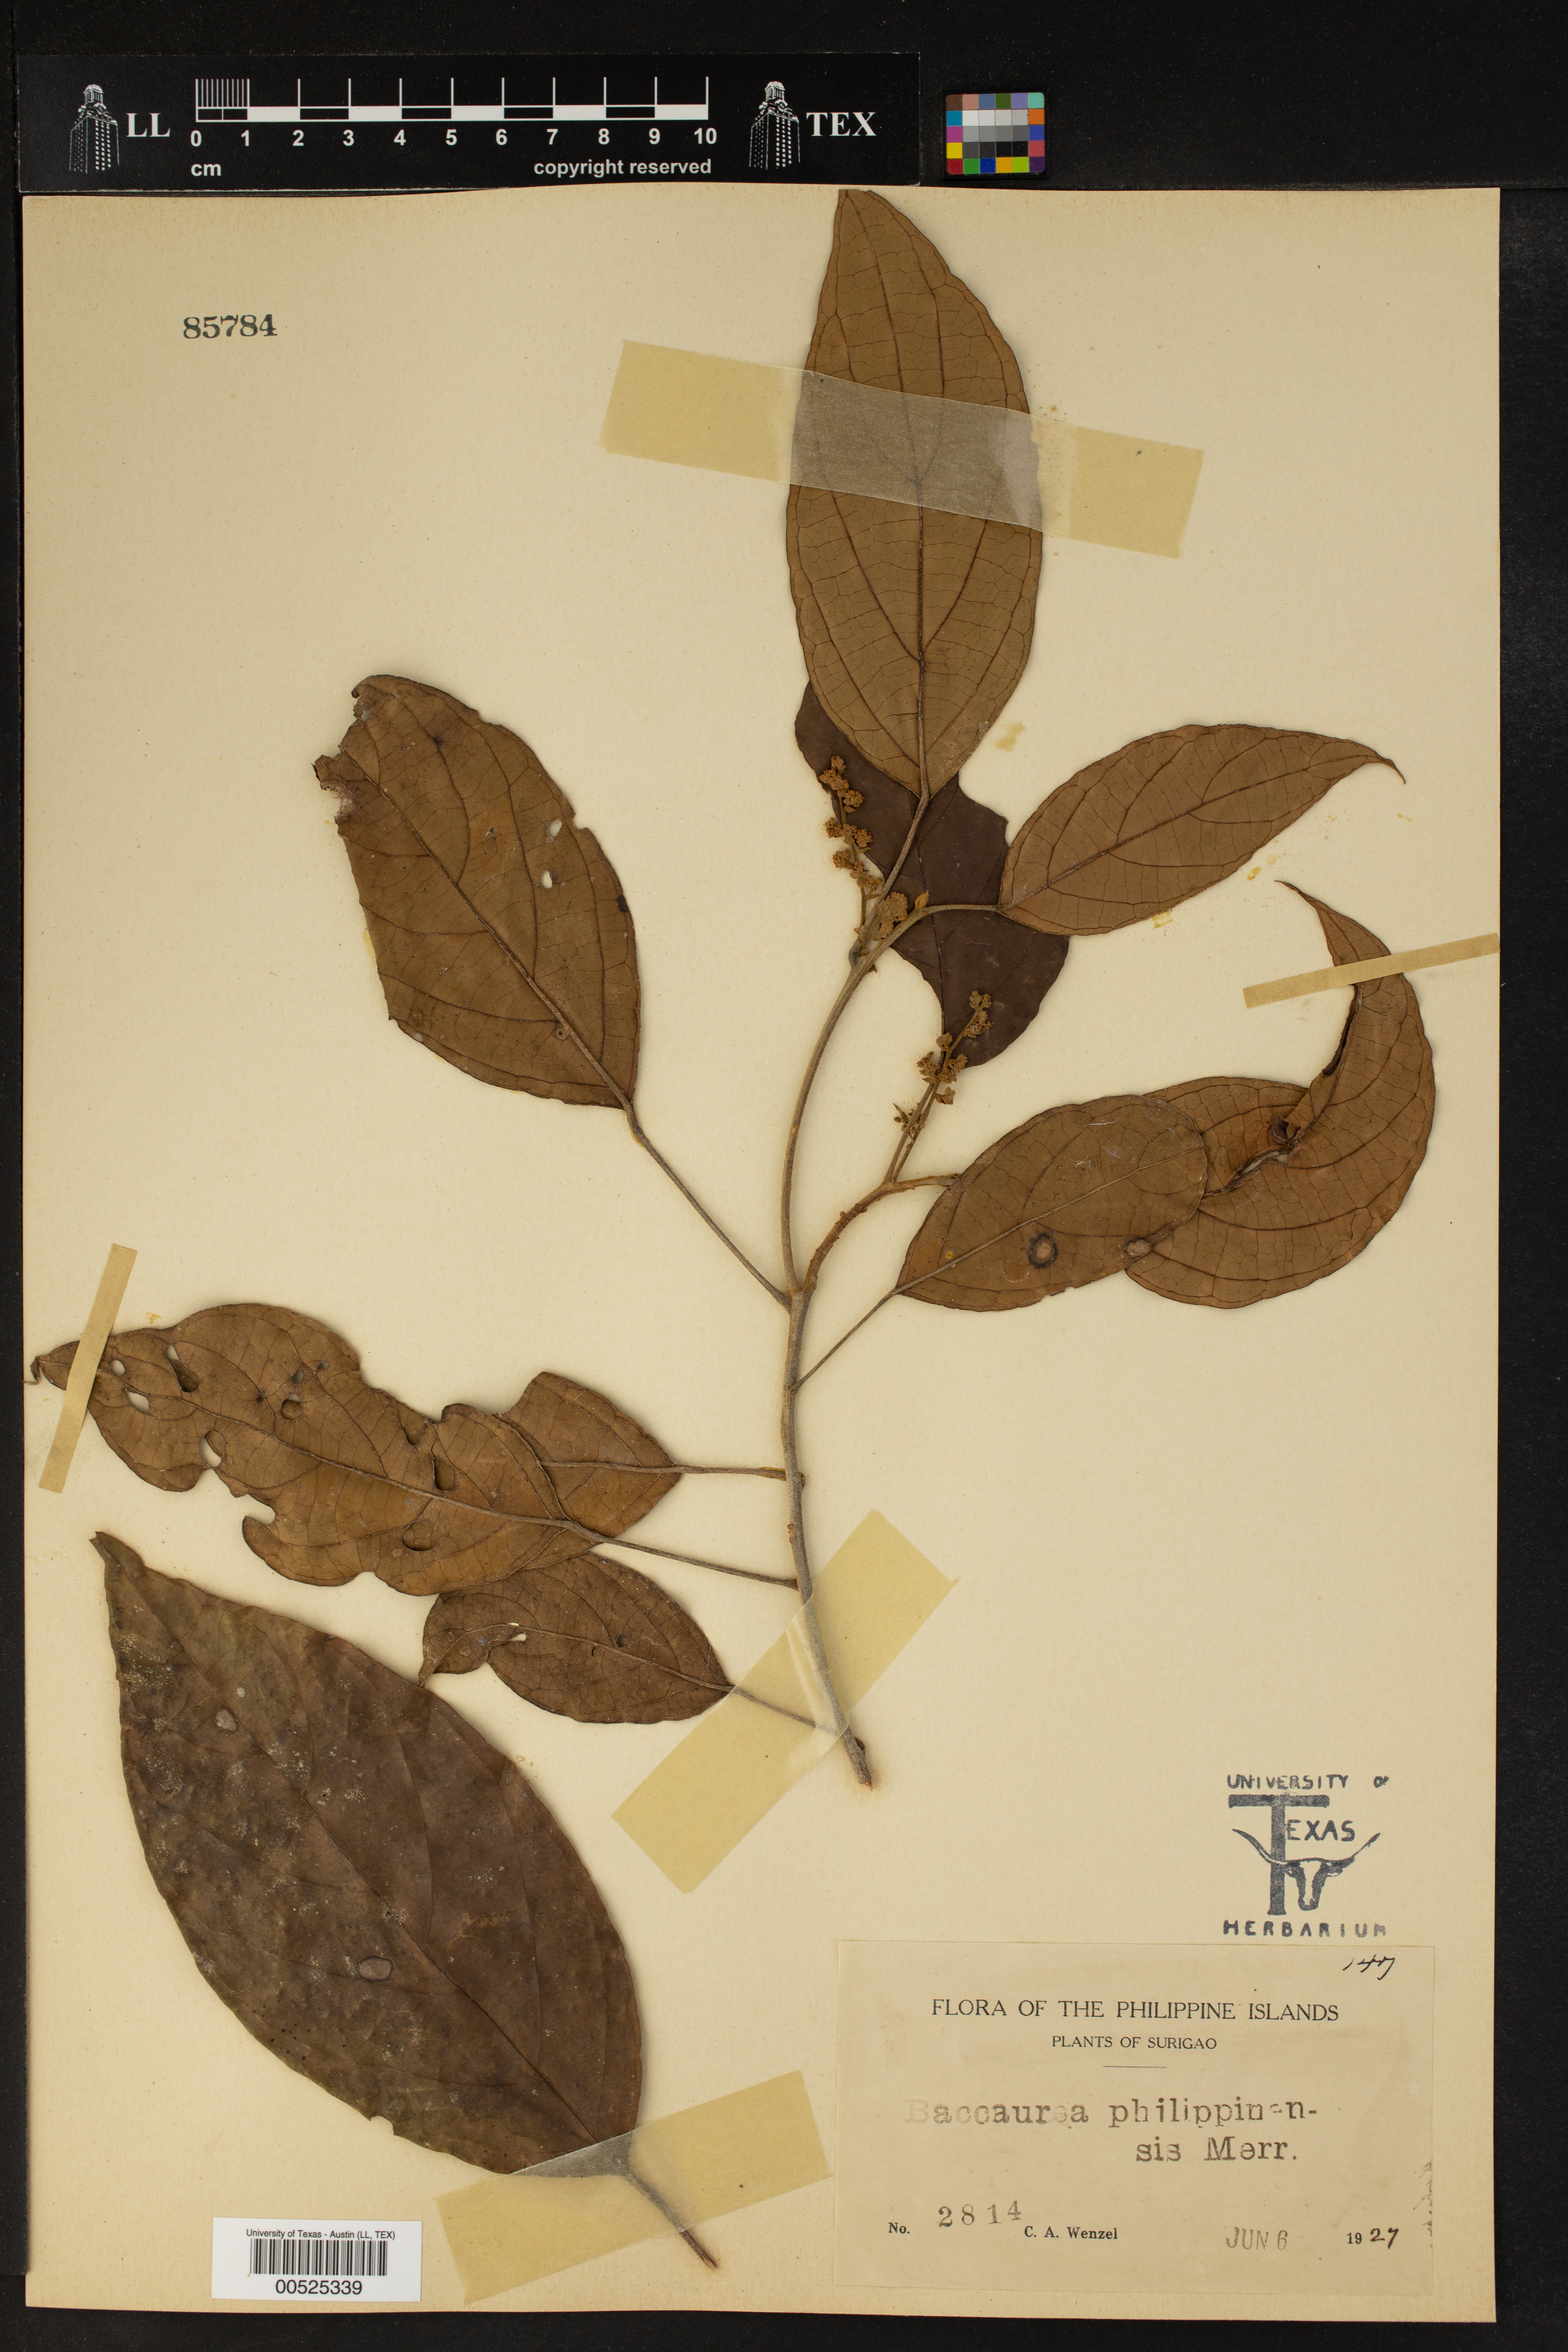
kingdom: Plantae
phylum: Tracheophyta
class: Magnoliopsida
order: Malpighiales
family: Phyllanthaceae
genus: Baccaurea
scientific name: Baccaurea philippinensis
